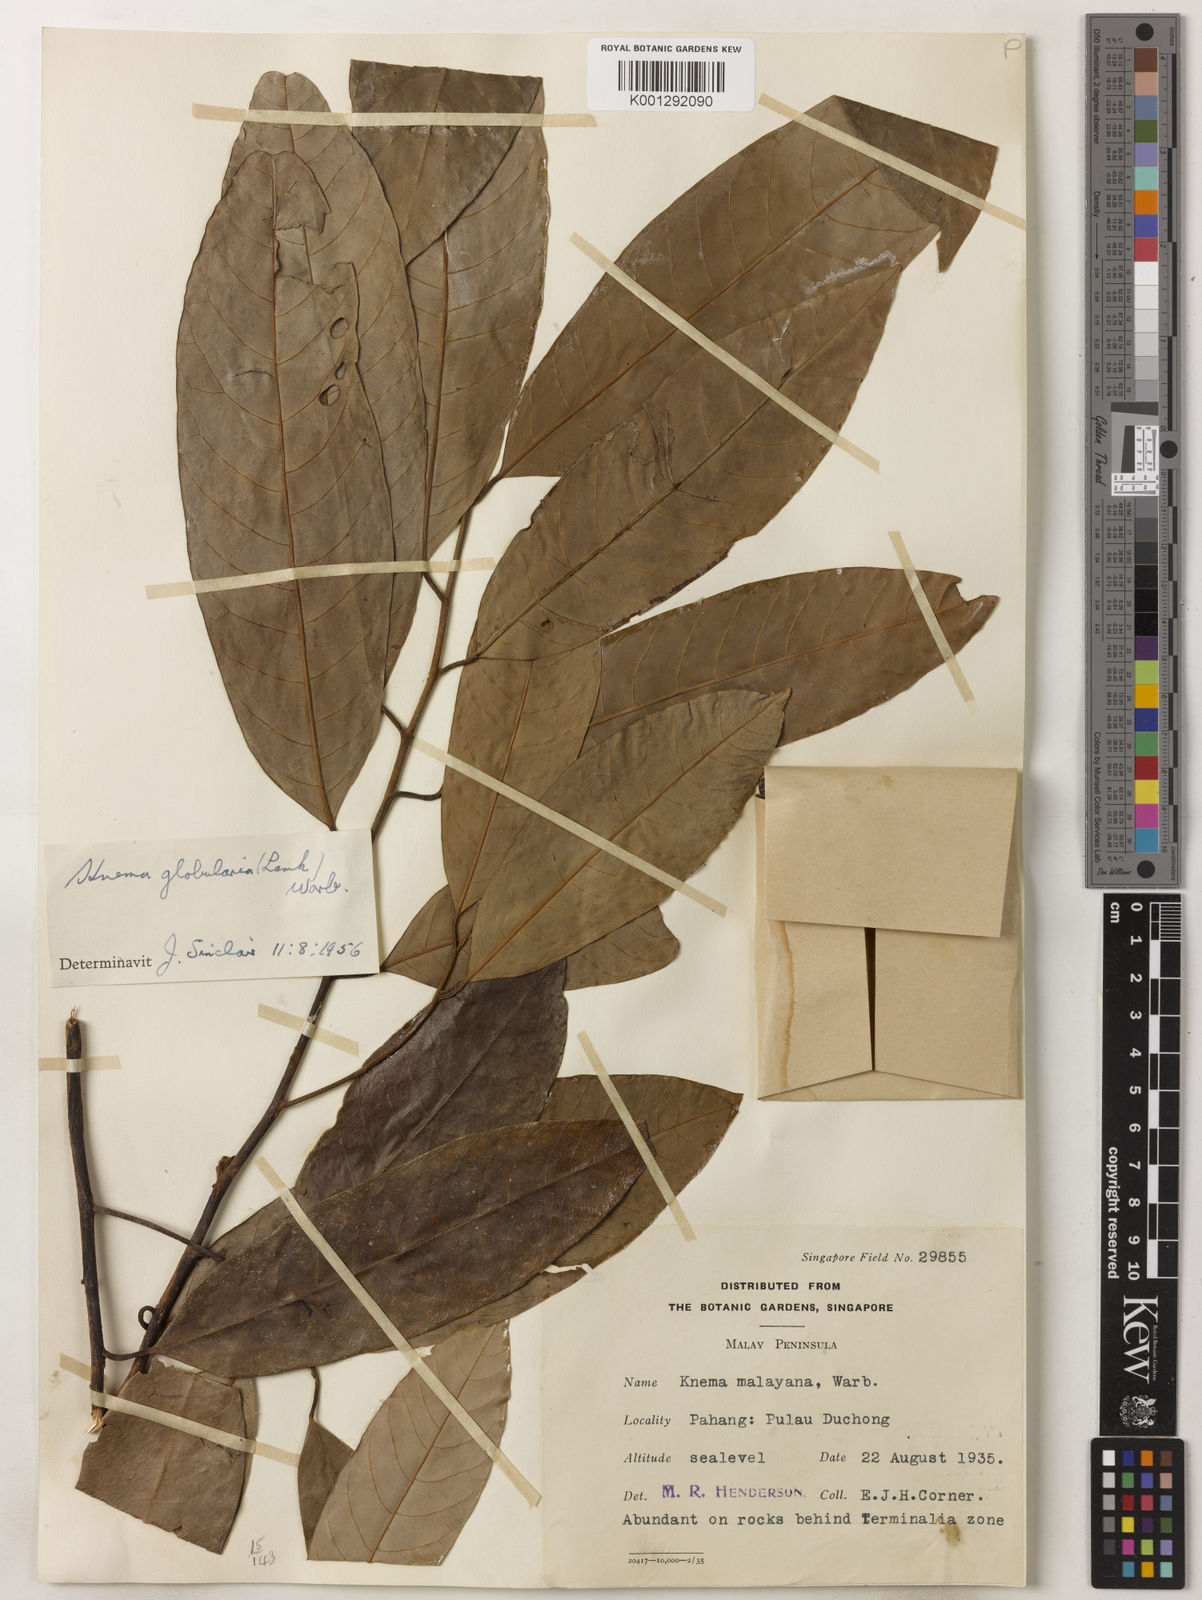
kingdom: Plantae
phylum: Tracheophyta
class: Magnoliopsida
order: Magnoliales
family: Myristicaceae
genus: Knema
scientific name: Knema globularia
